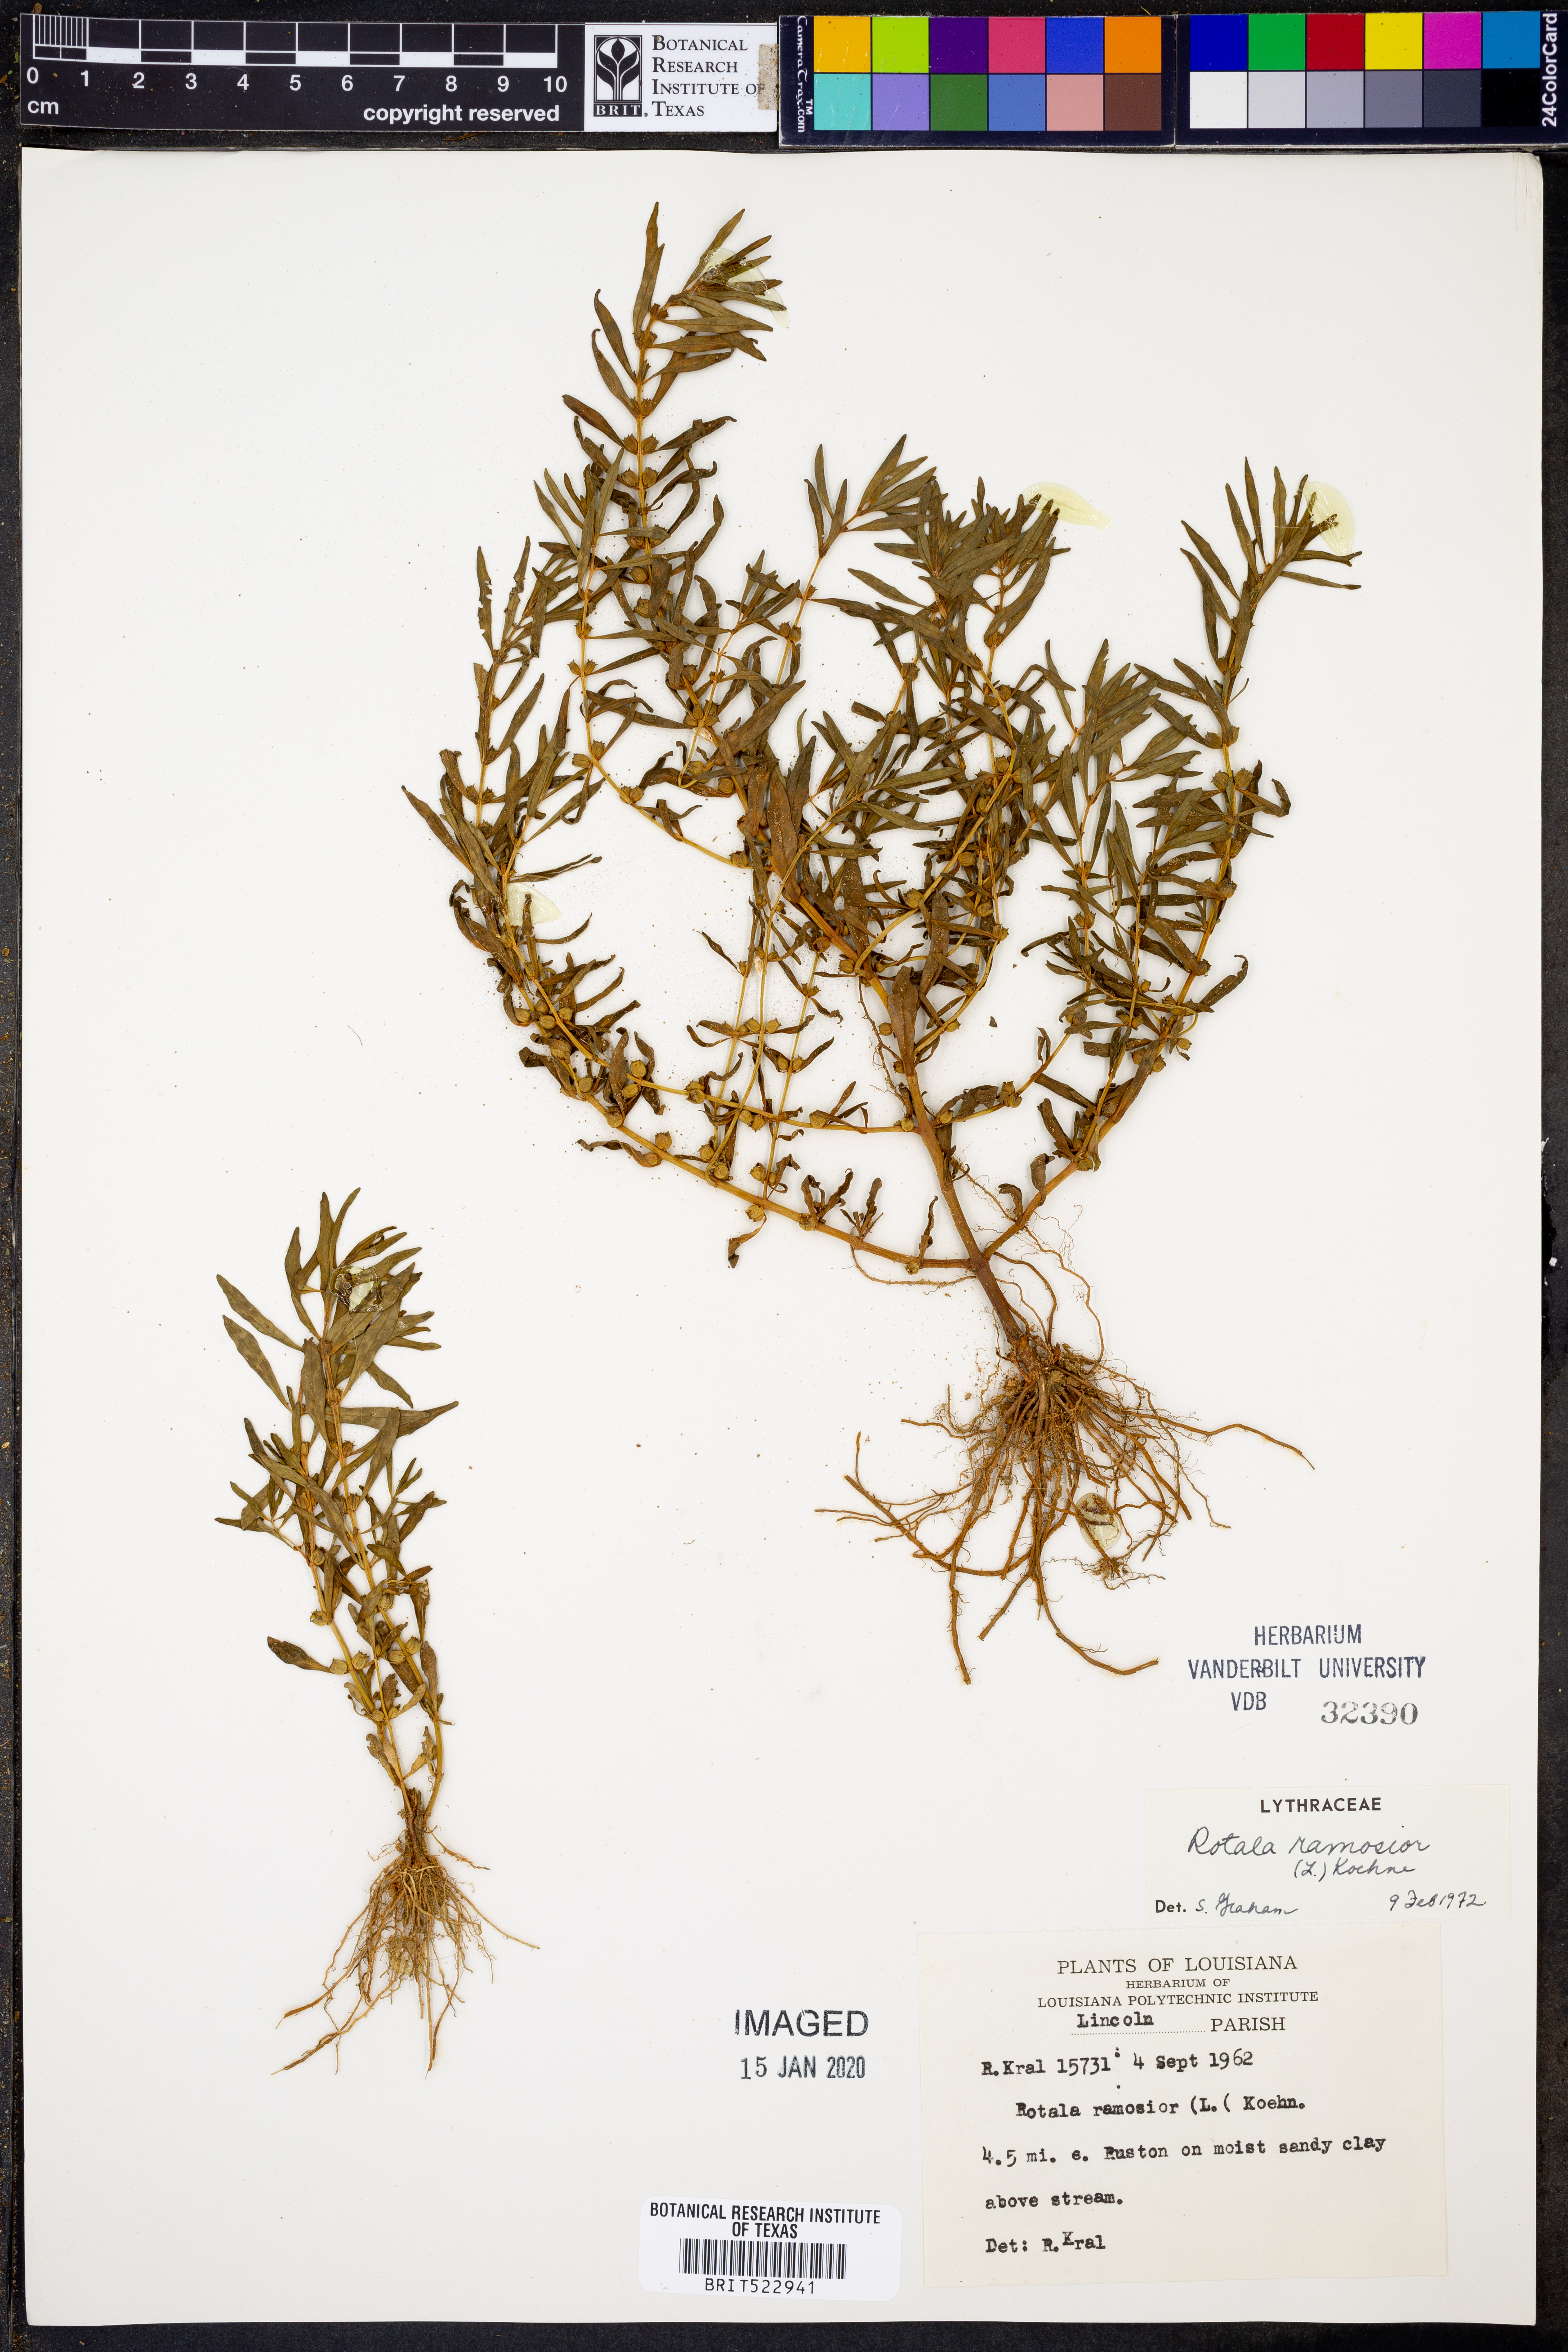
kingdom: Plantae
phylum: Tracheophyta
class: Magnoliopsida
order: Myrtales
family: Lythraceae
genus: Rotala
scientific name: Rotala ramosior
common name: Lowland rotala
